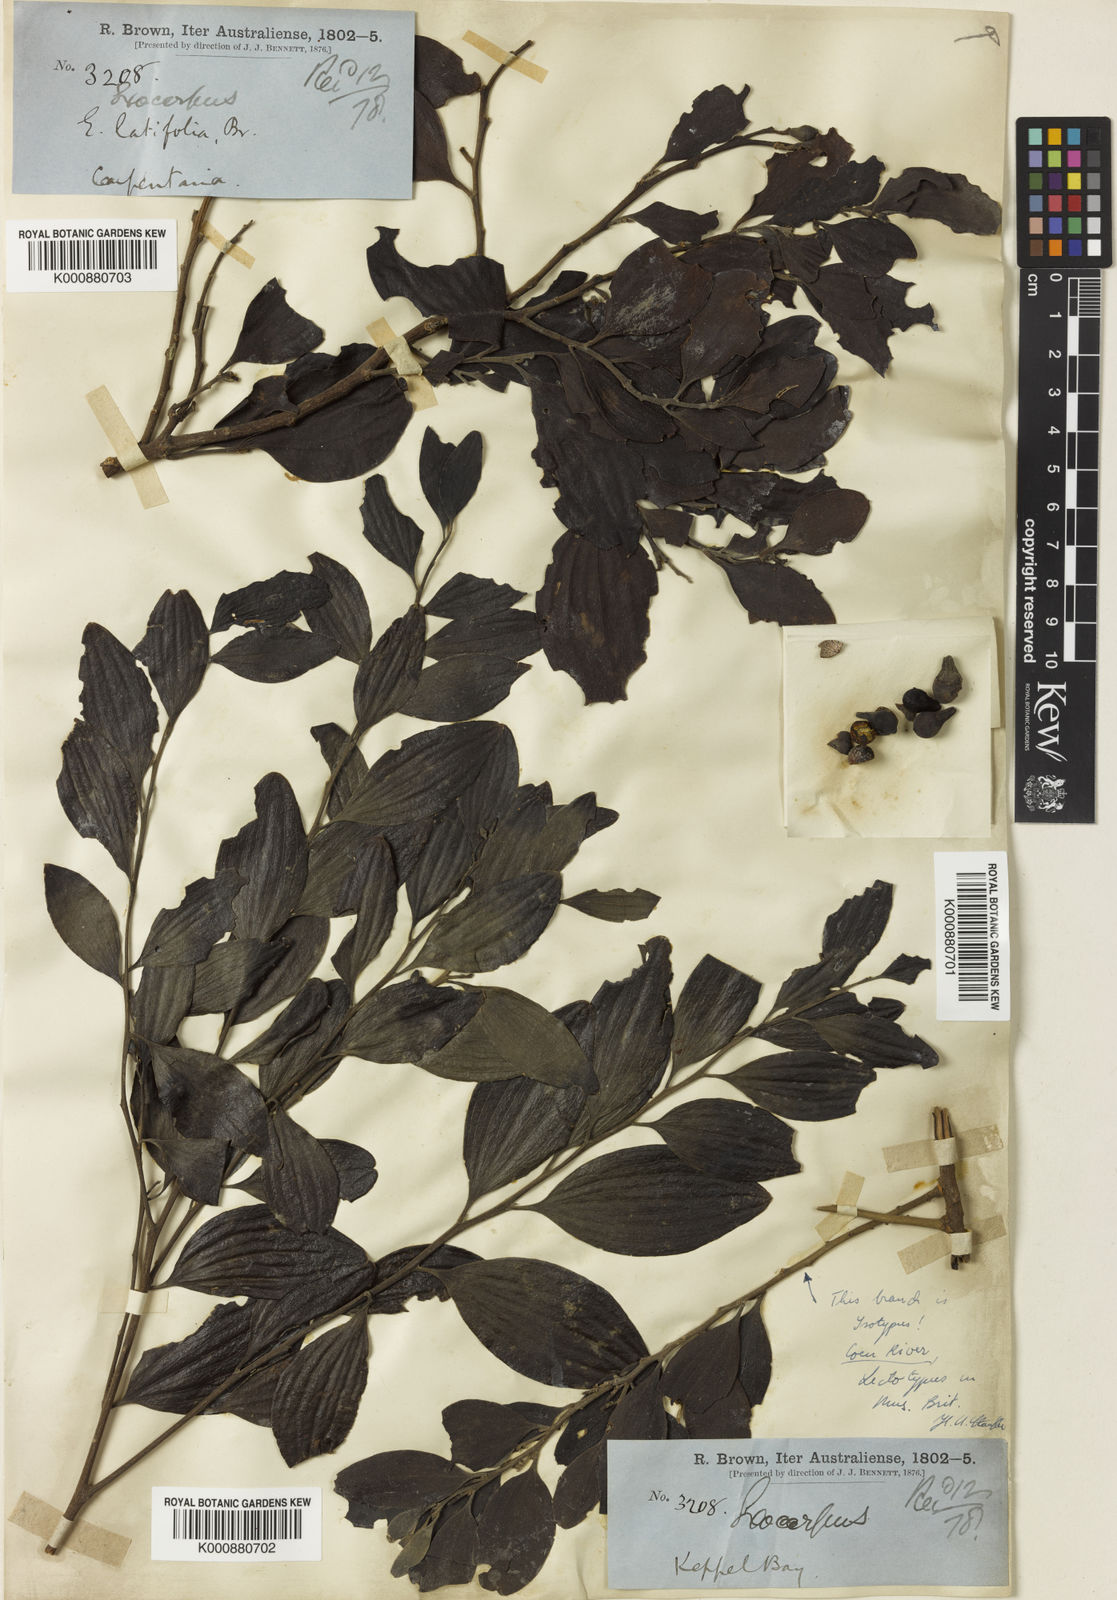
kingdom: Plantae
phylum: Tracheophyta
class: Magnoliopsida
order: Santalales
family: Santalaceae
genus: Exocarpos
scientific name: Exocarpos latifolius
